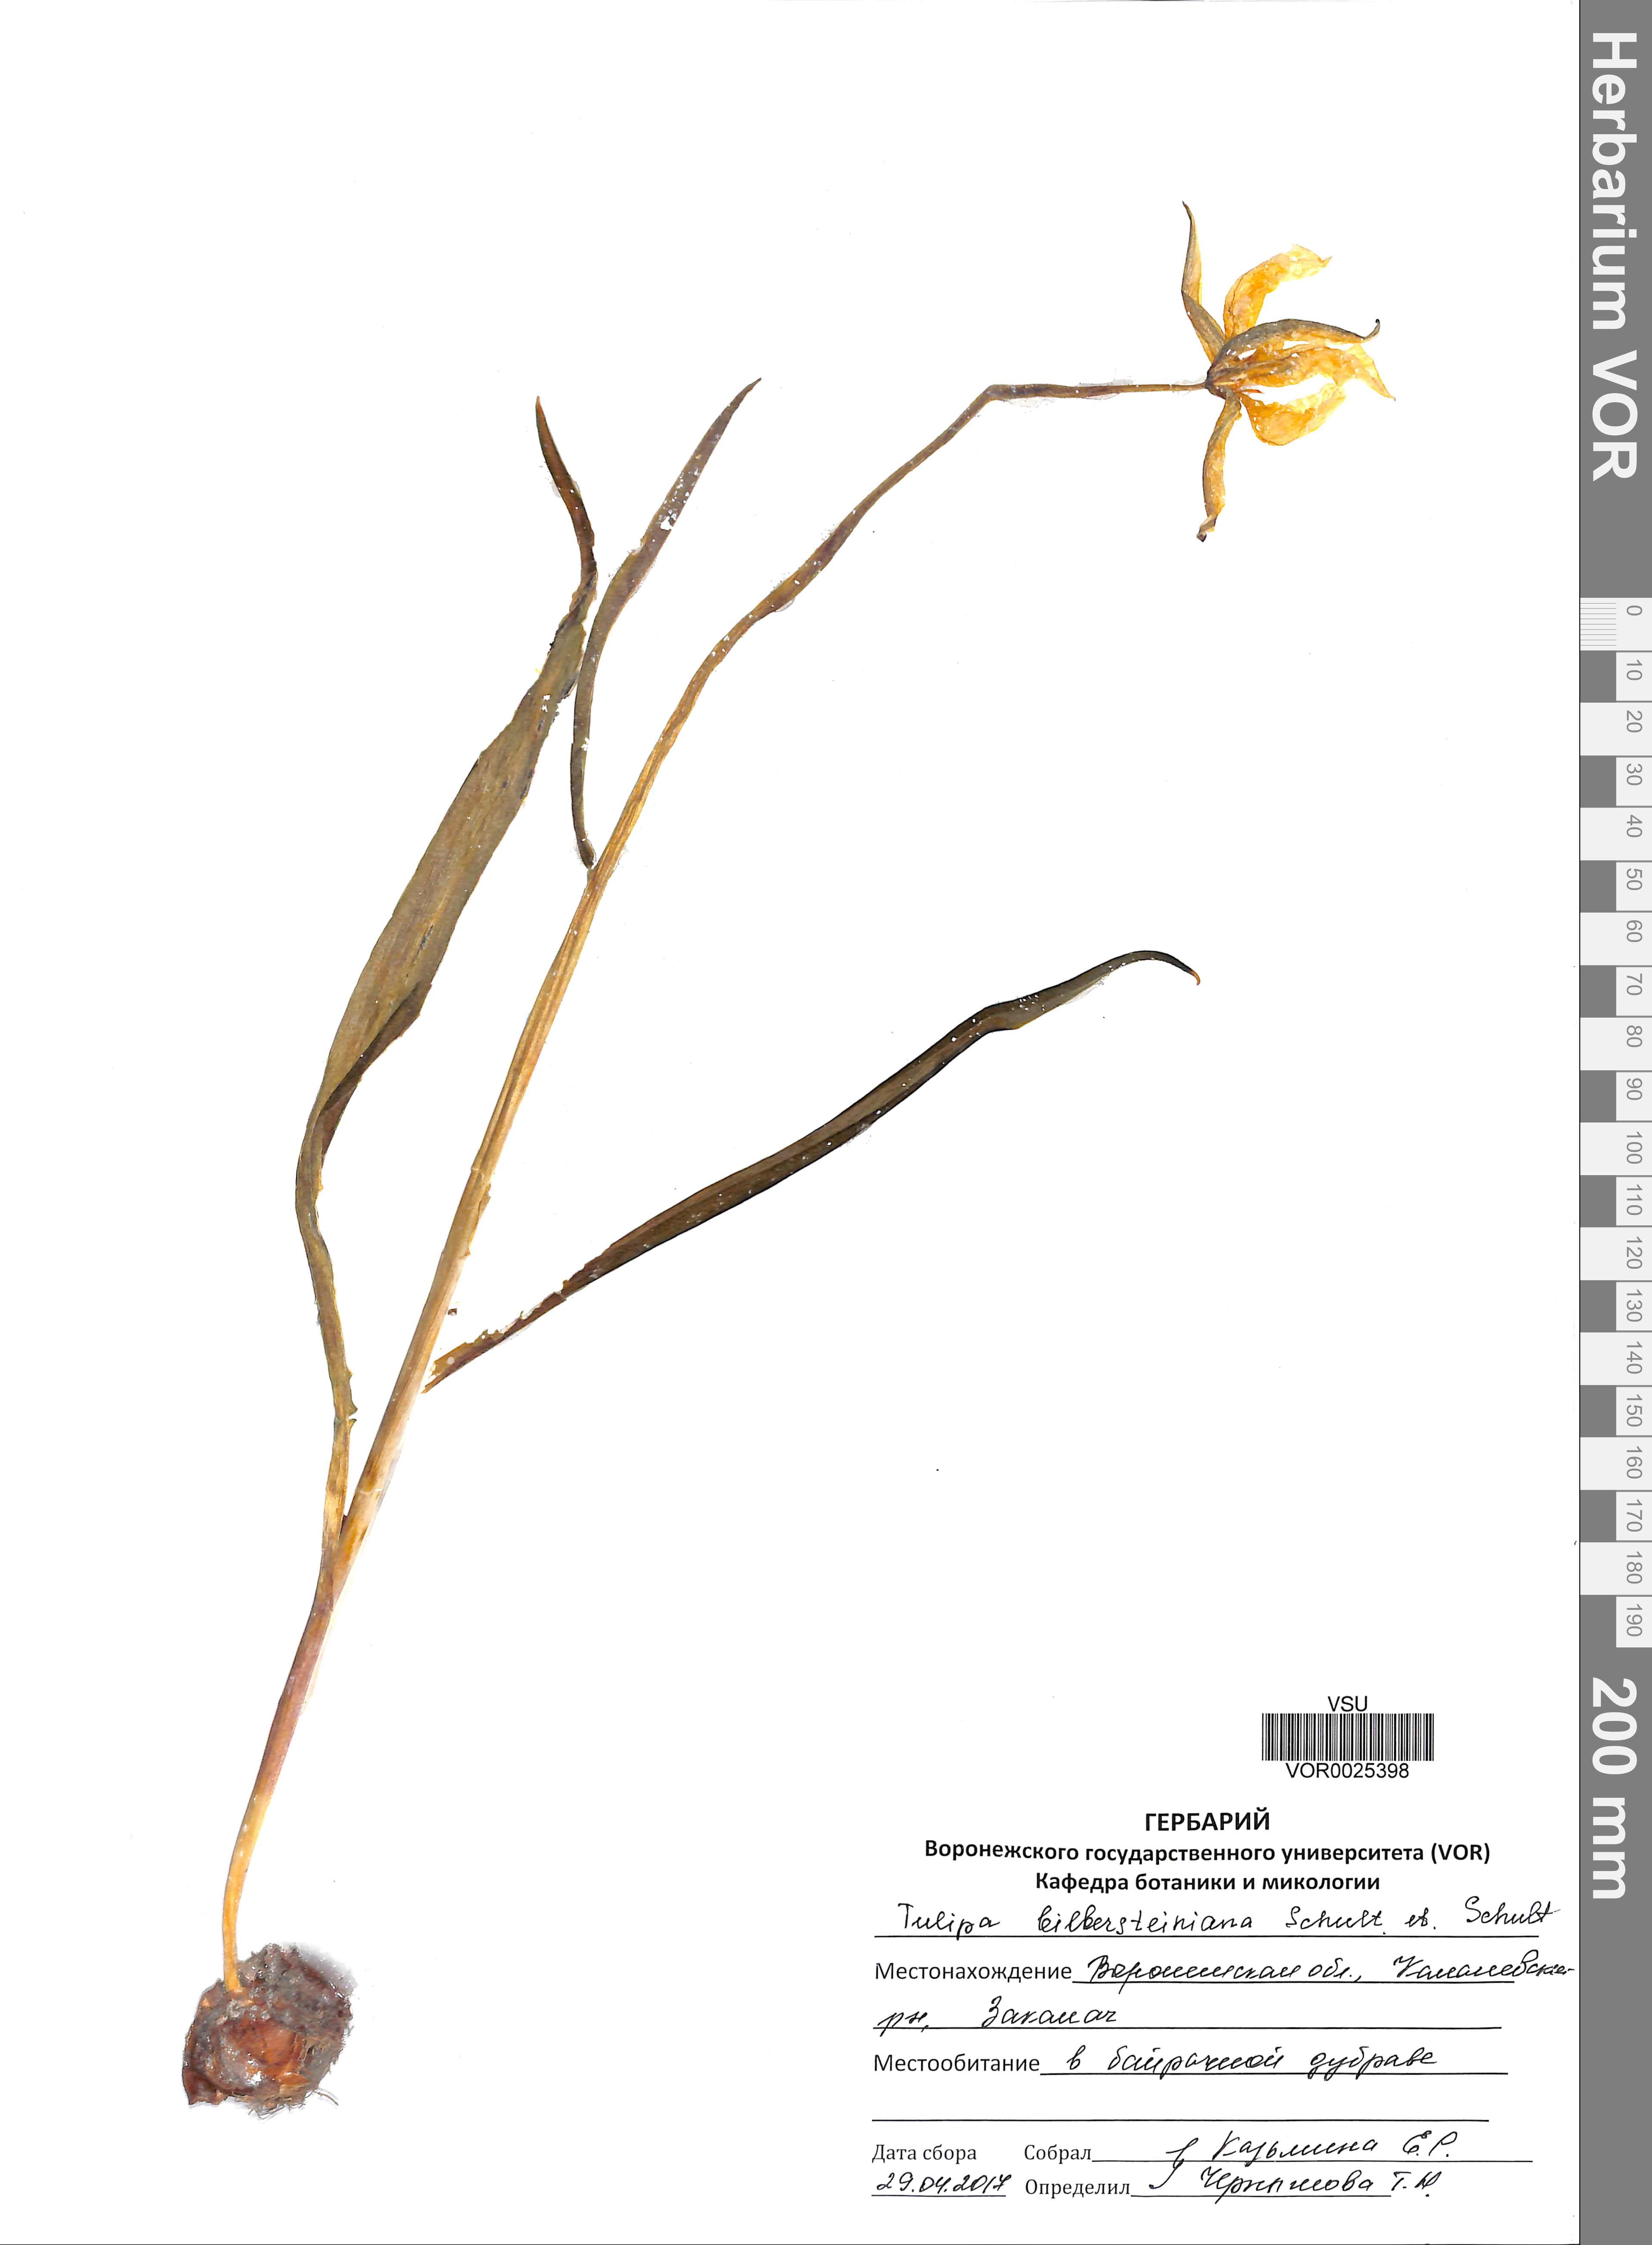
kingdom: Plantae
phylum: Tracheophyta
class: Liliopsida
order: Liliales
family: Liliaceae
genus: Tulipa
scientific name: Tulipa sylvestris
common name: Wild tulip
